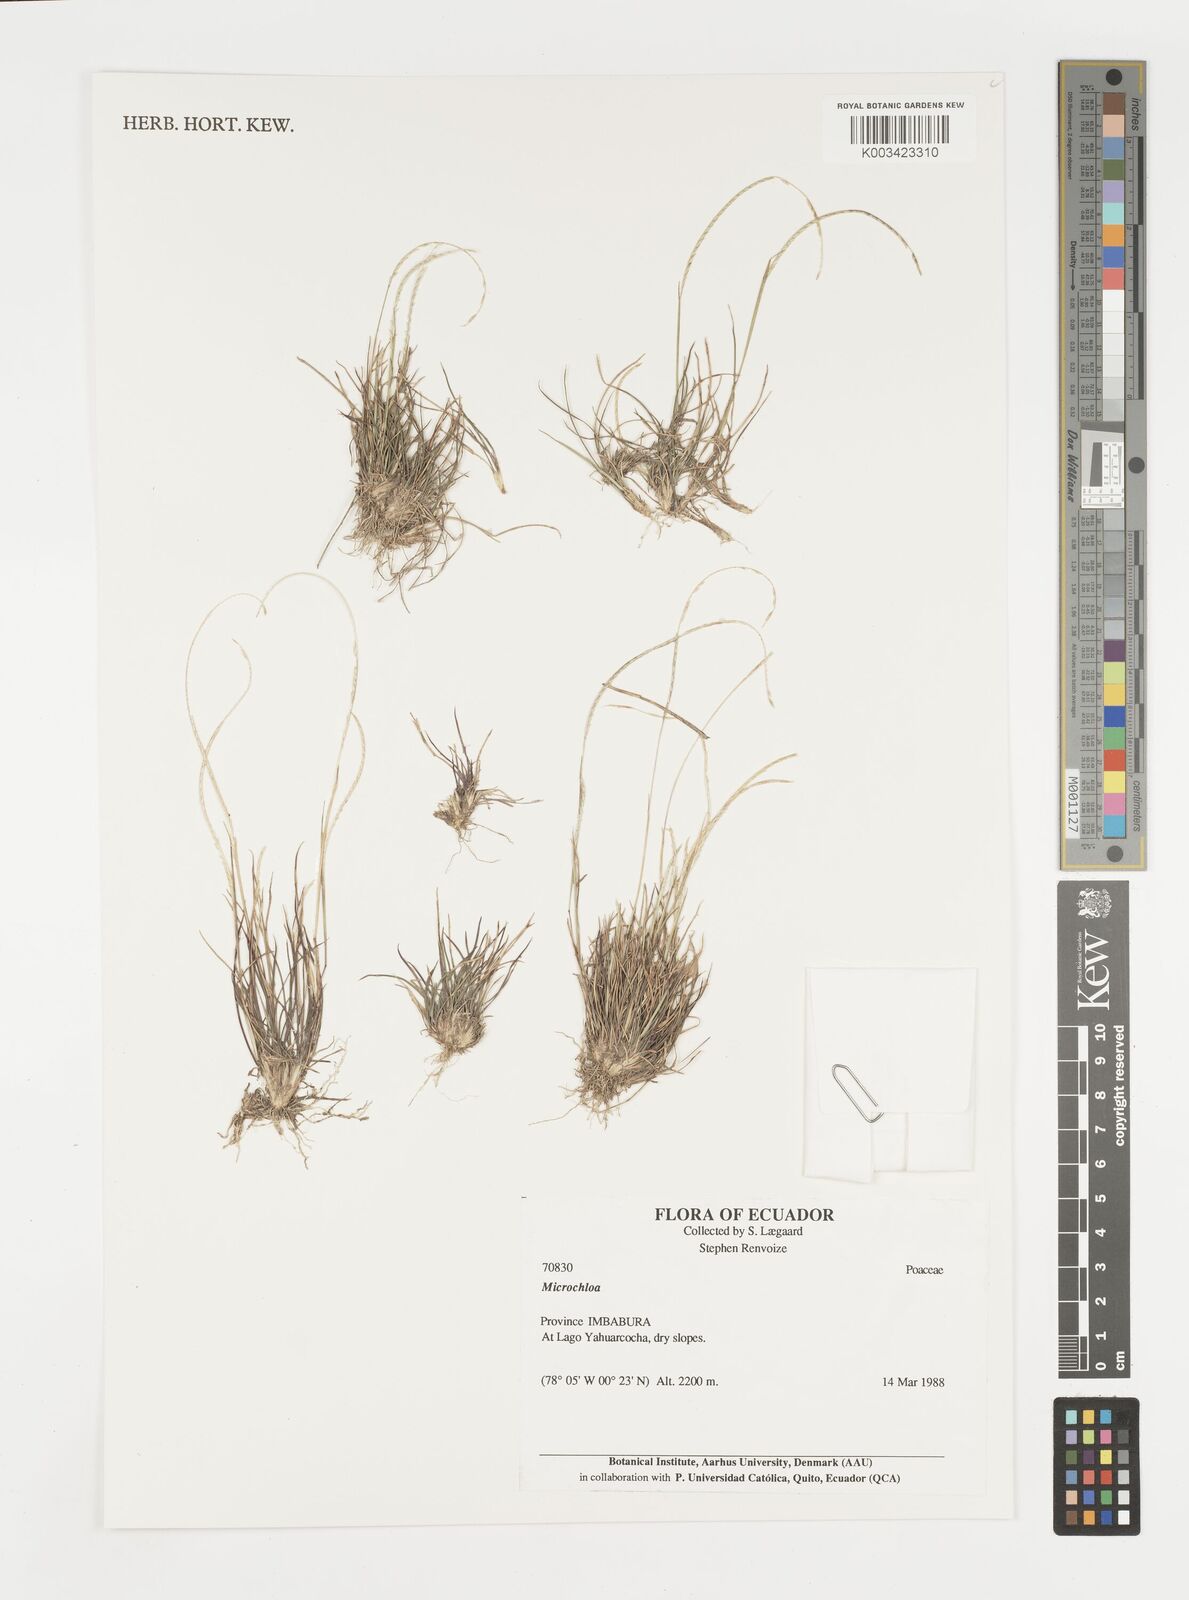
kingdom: Plantae
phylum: Tracheophyta
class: Liliopsida
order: Poales
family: Poaceae
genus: Microchloa
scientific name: Microchloa indica
